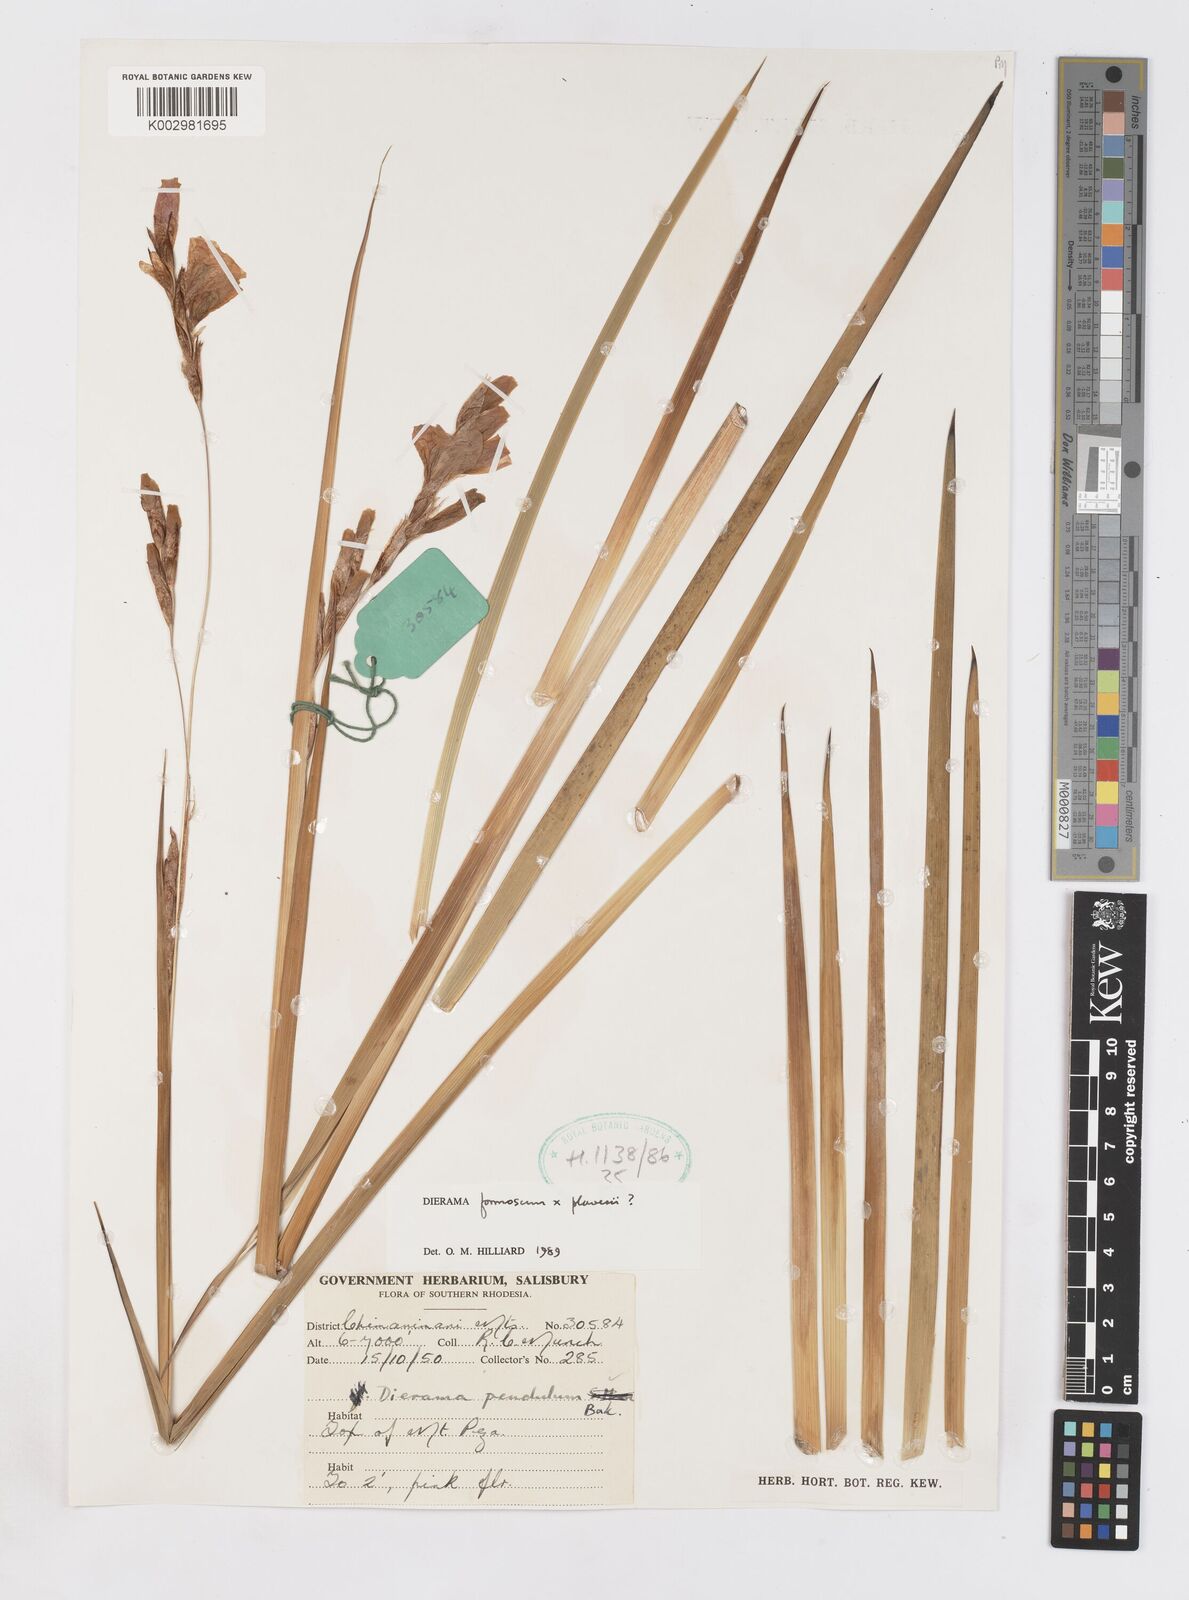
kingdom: Plantae
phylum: Tracheophyta
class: Liliopsida
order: Asparagales
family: Iridaceae
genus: Dierama
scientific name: Dierama formosum
